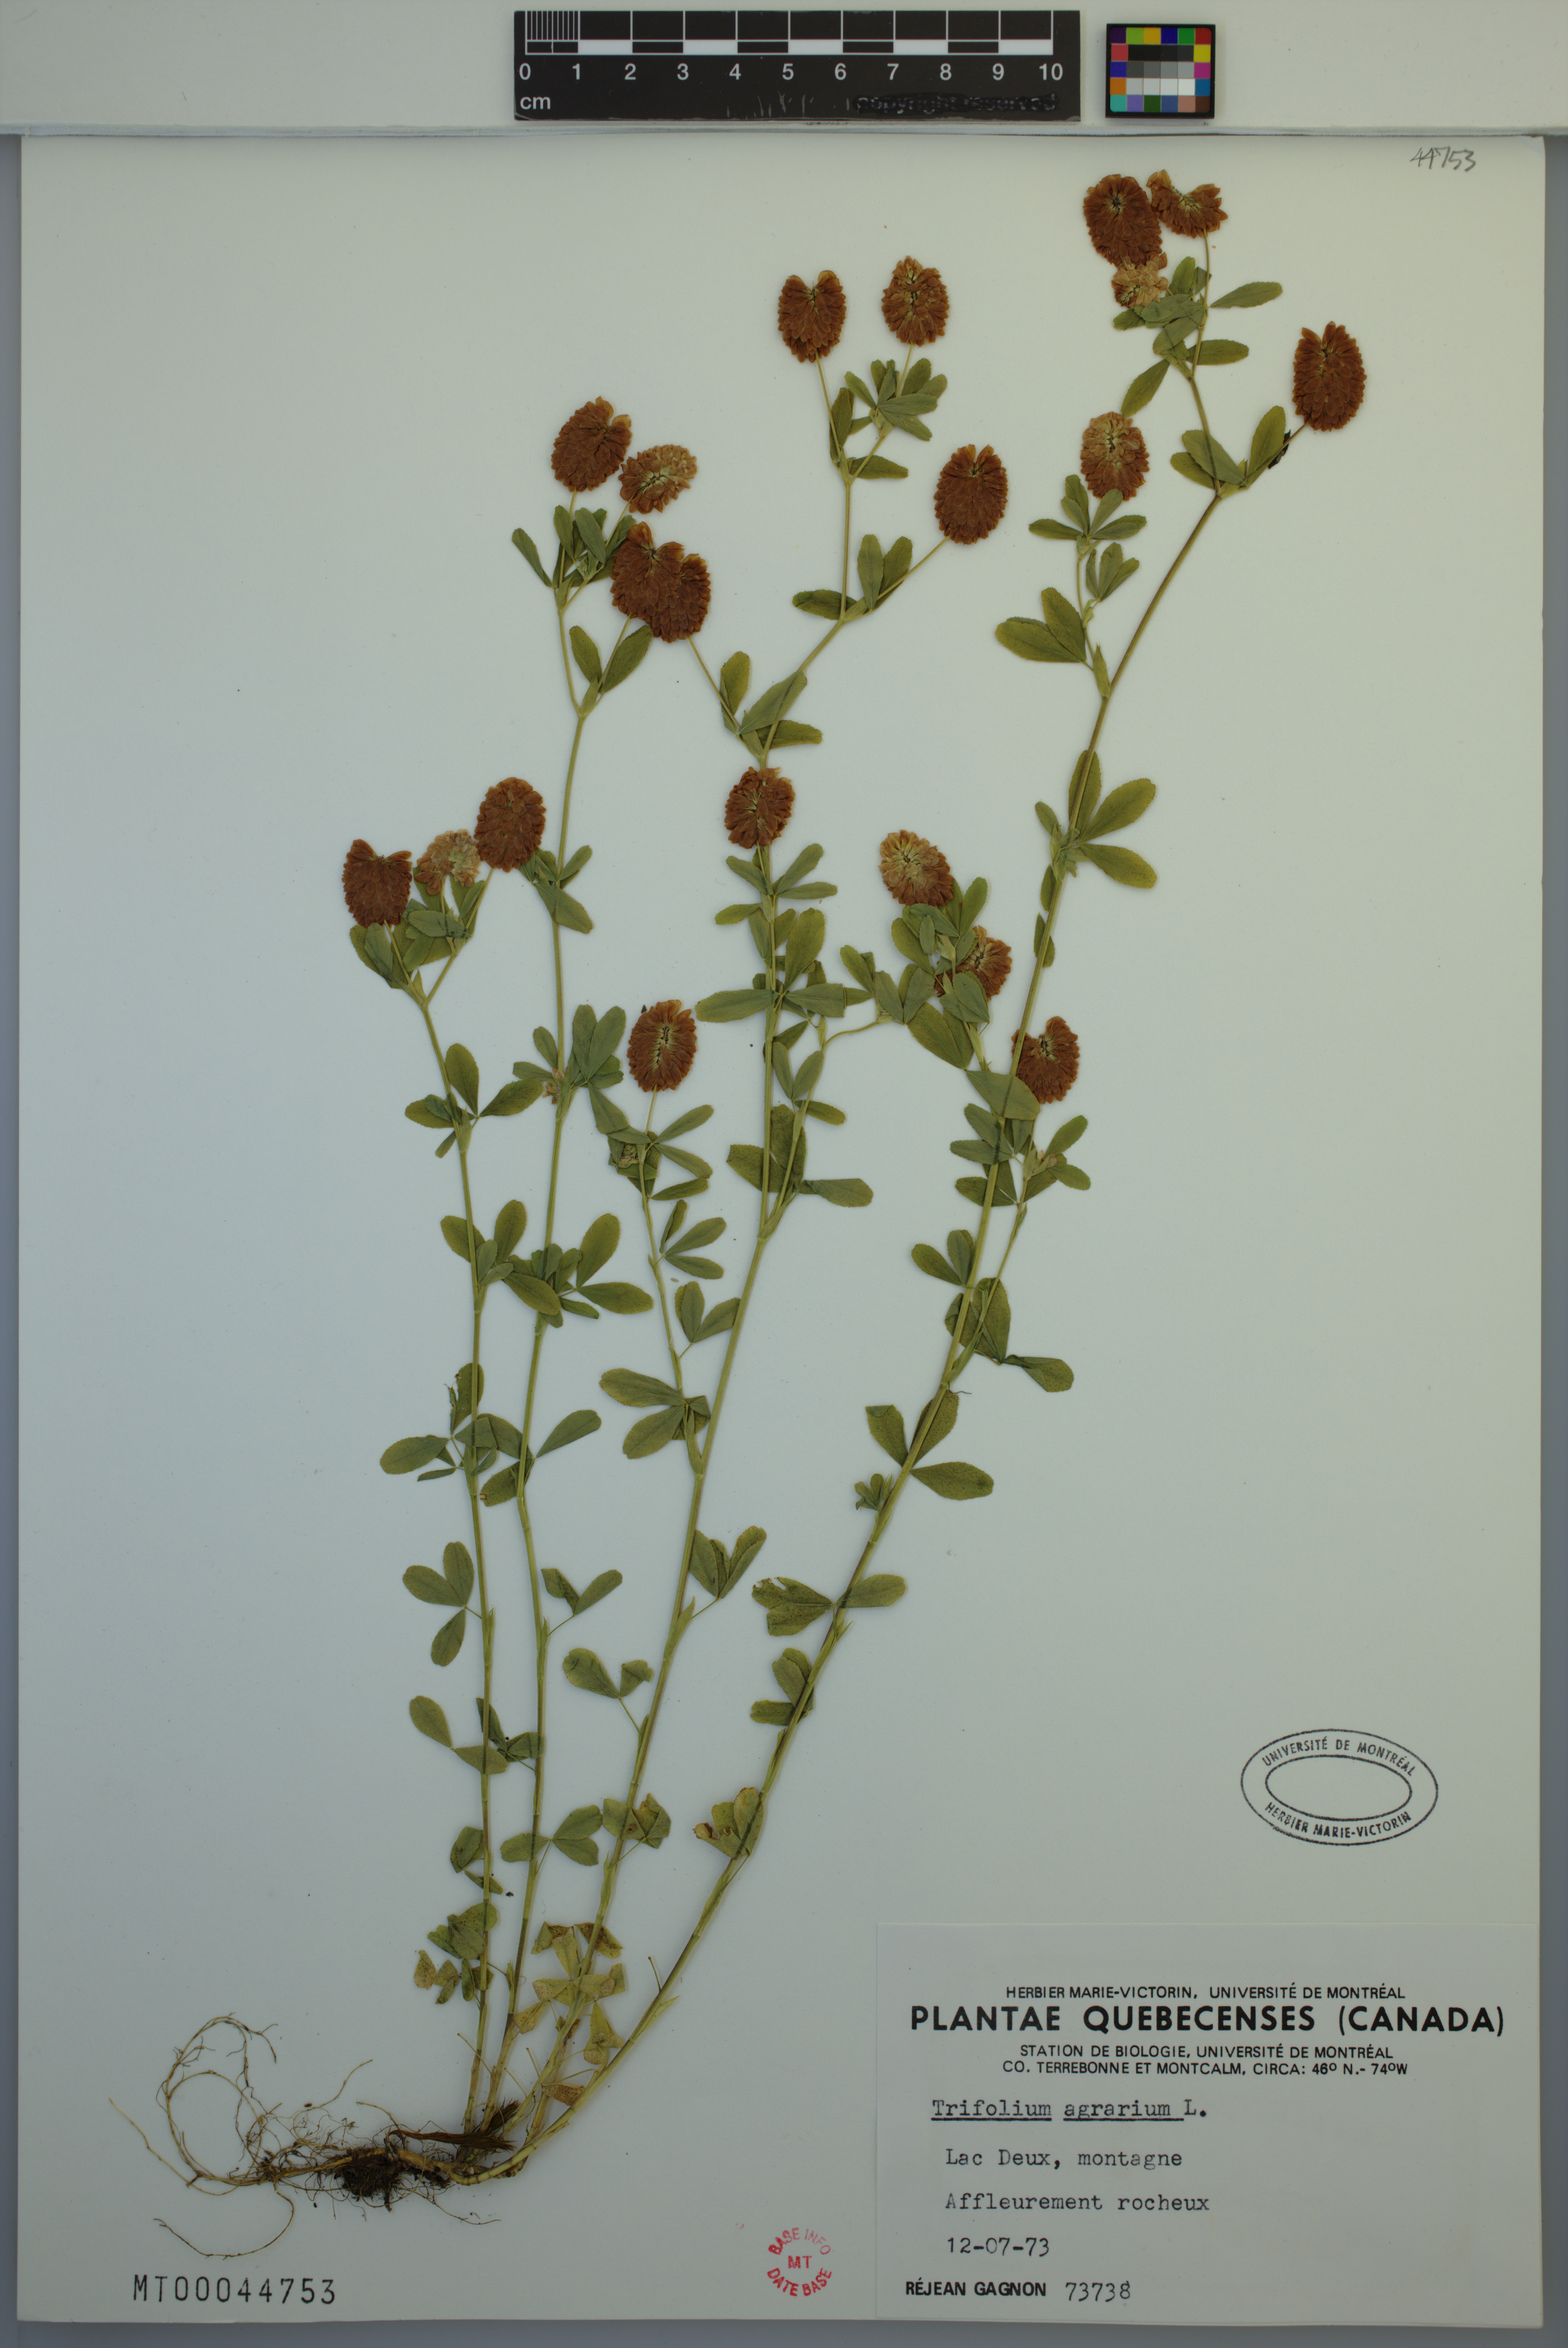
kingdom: Plantae
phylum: Tracheophyta
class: Magnoliopsida
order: Fabales
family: Fabaceae
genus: Trifolium
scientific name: Trifolium aureum
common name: Golden clover
